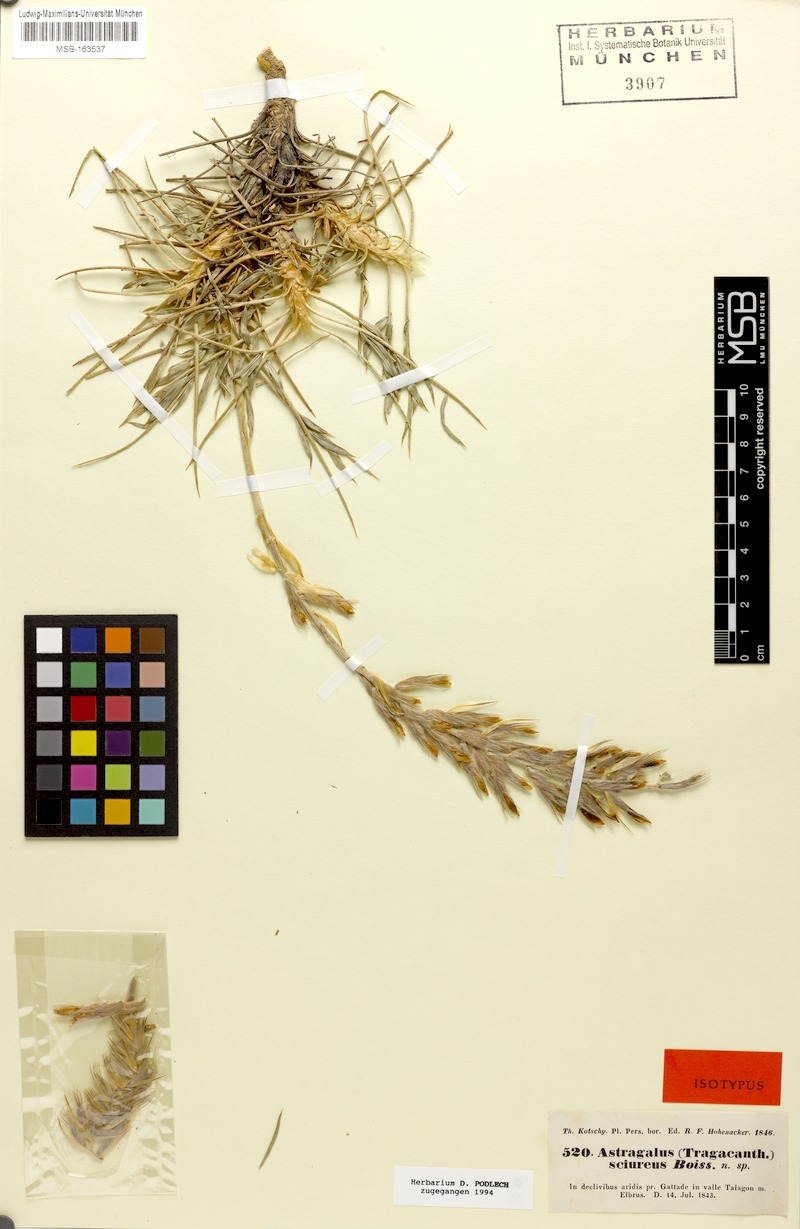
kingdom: Plantae
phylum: Tracheophyta
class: Magnoliopsida
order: Fabales
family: Fabaceae
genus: Astragalus
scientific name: Astragalus sciureus
